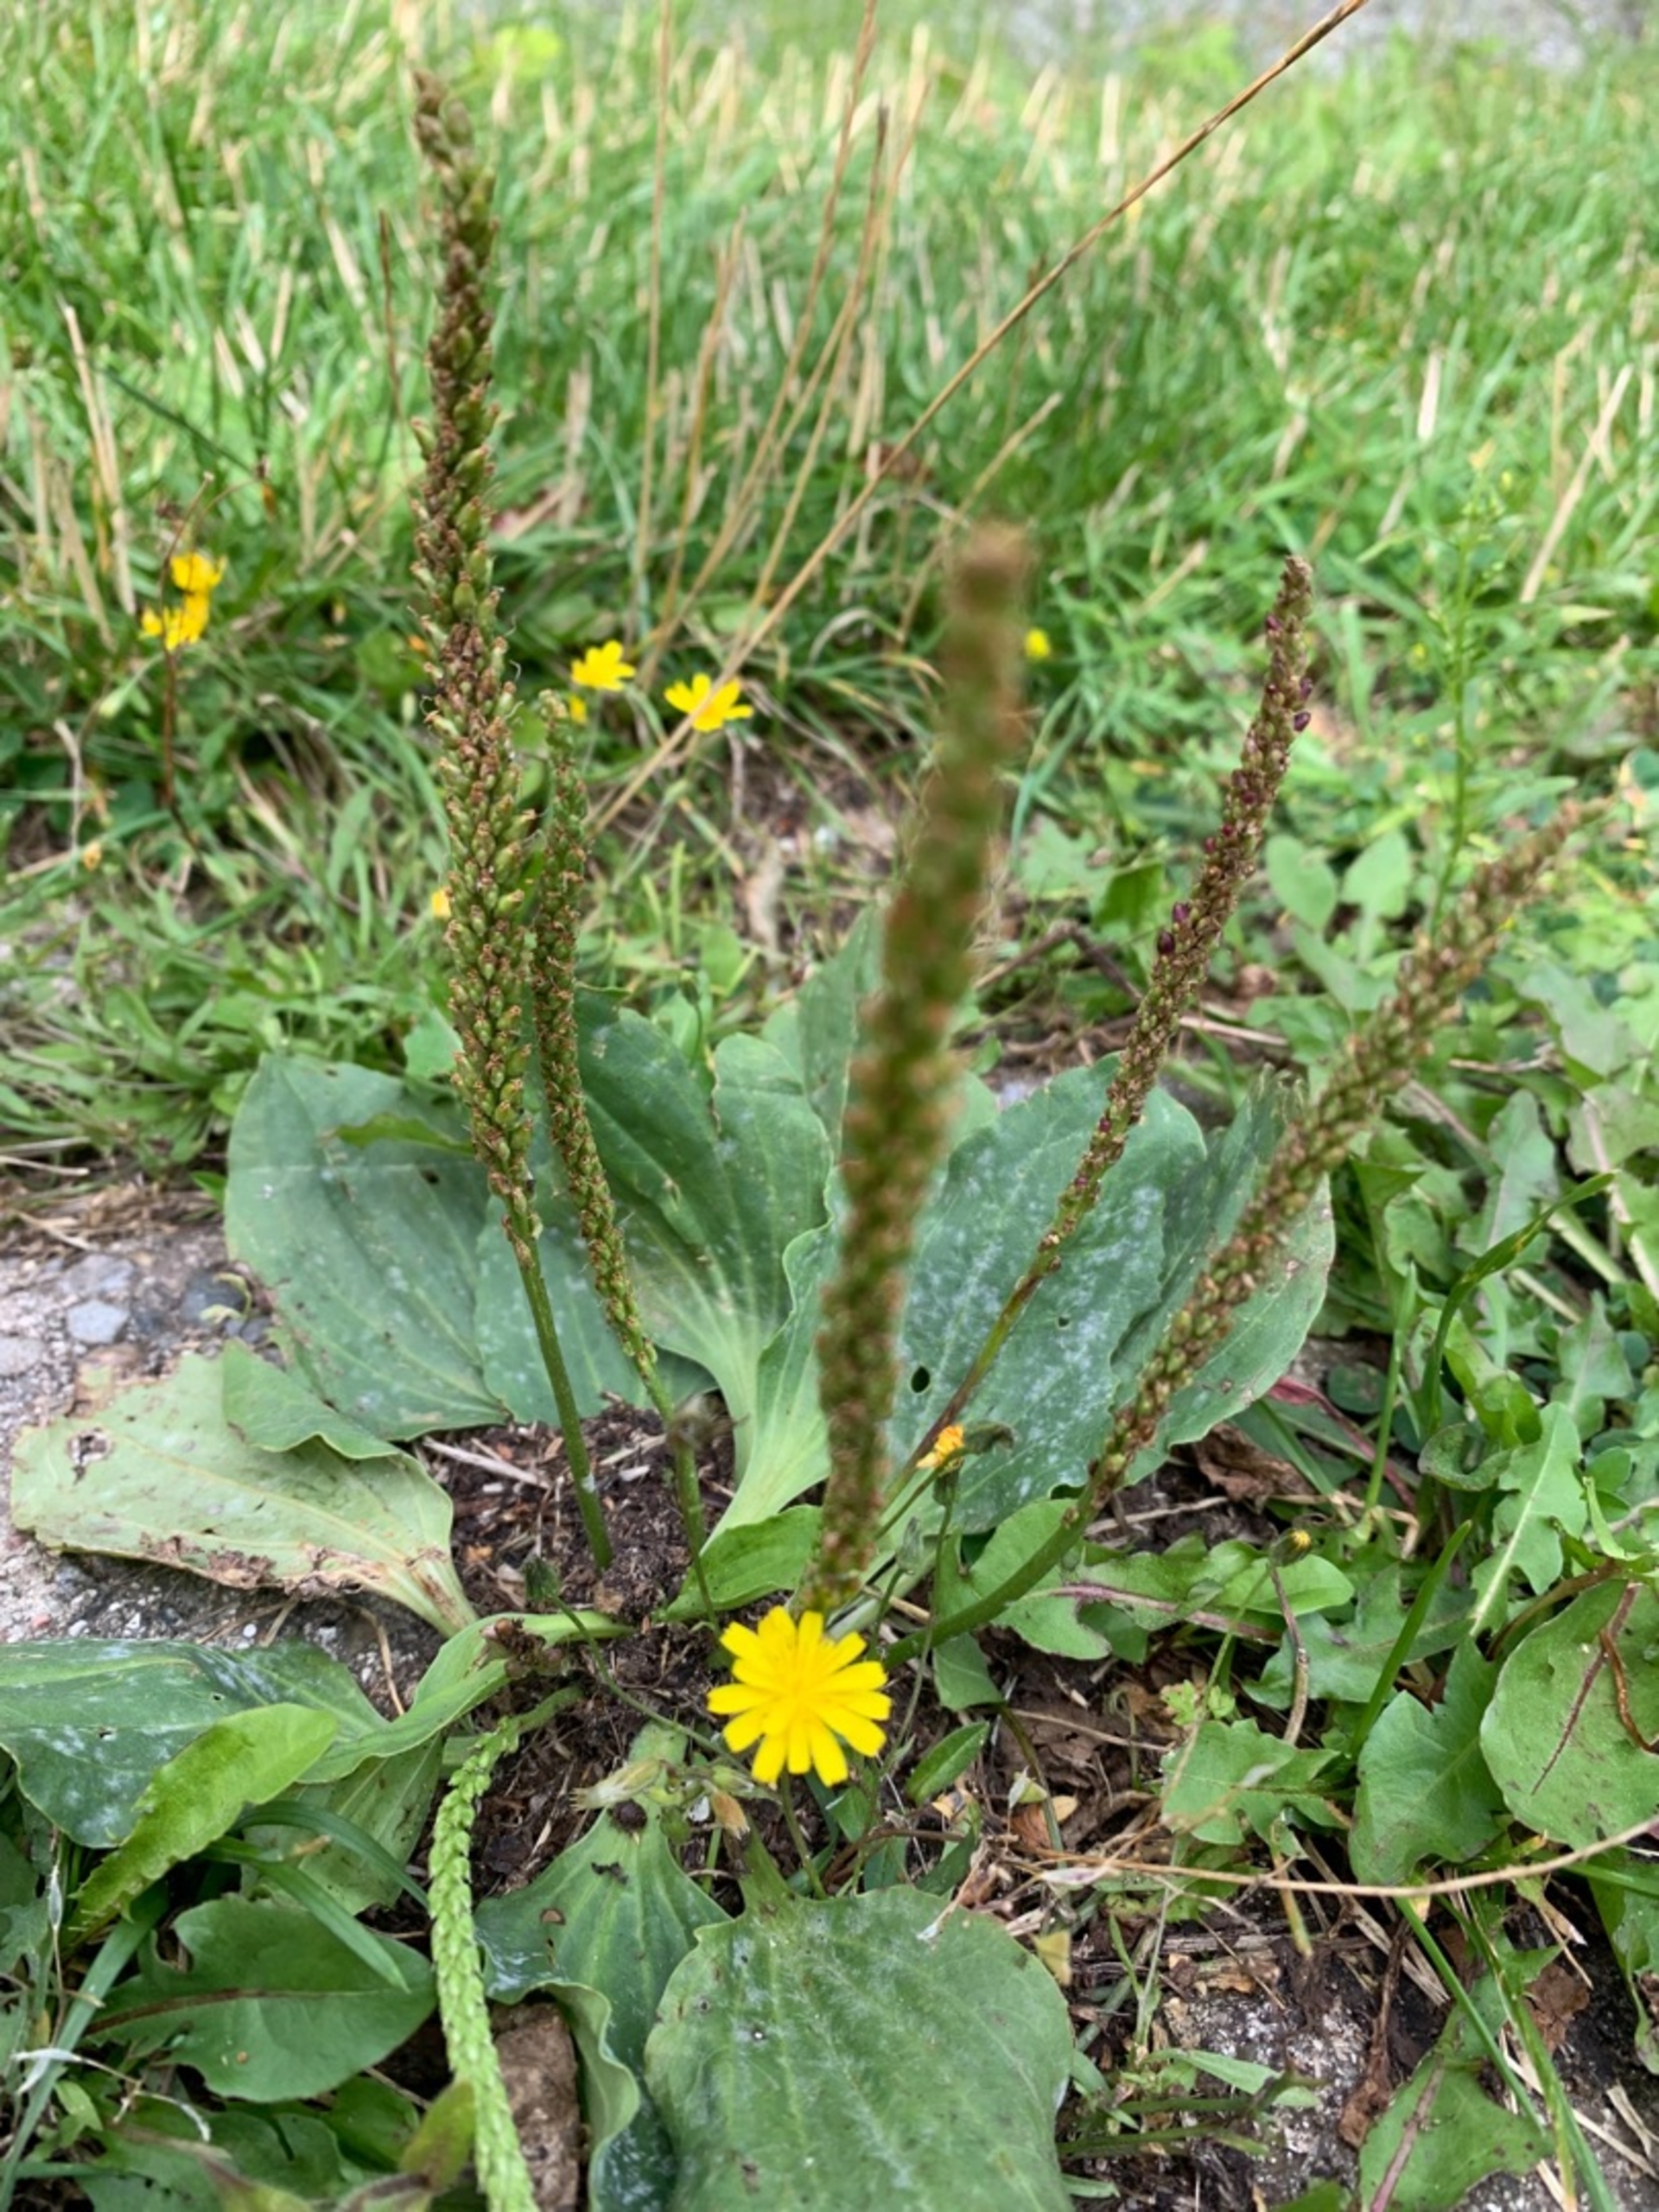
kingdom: Plantae
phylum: Tracheophyta
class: Magnoliopsida
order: Lamiales
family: Plantaginaceae
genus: Plantago
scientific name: Plantago major
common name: Glat vejbred
